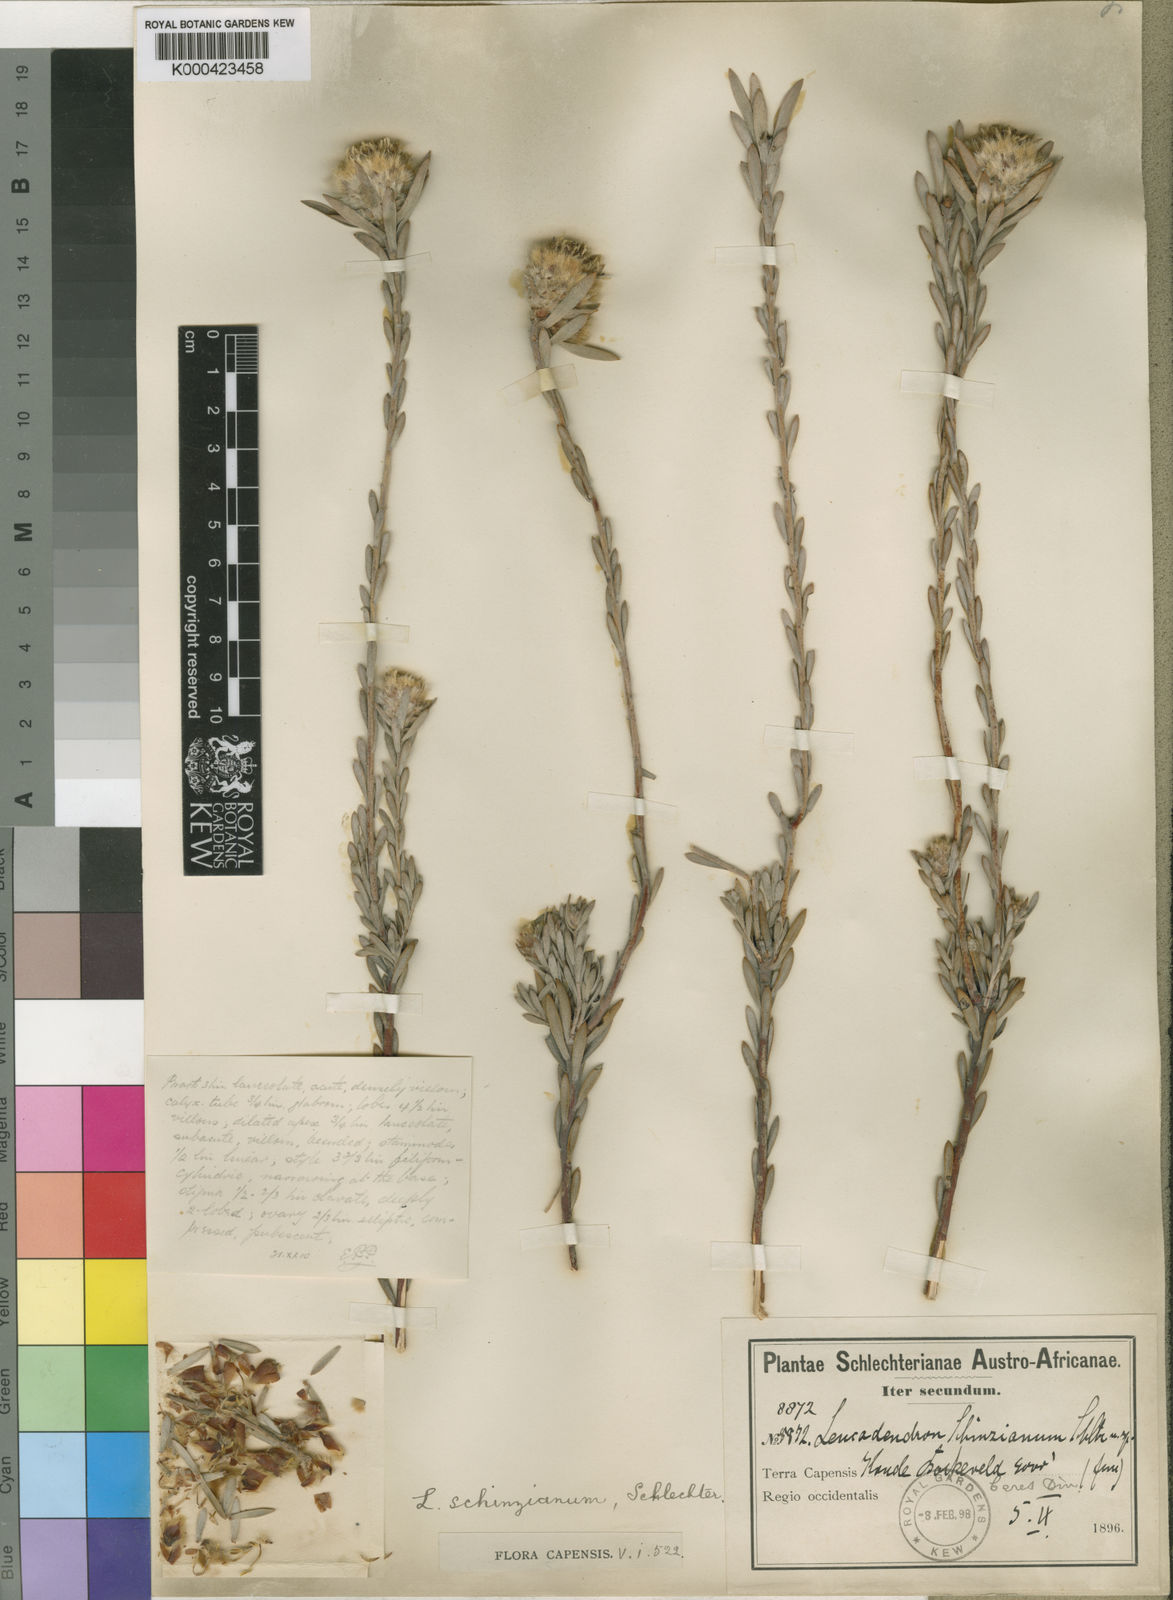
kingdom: Plantae
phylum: Tracheophyta
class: Magnoliopsida
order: Proteales
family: Proteaceae
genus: Leucadendron
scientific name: Leucadendron nitidum
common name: Bokkeveld conebush
